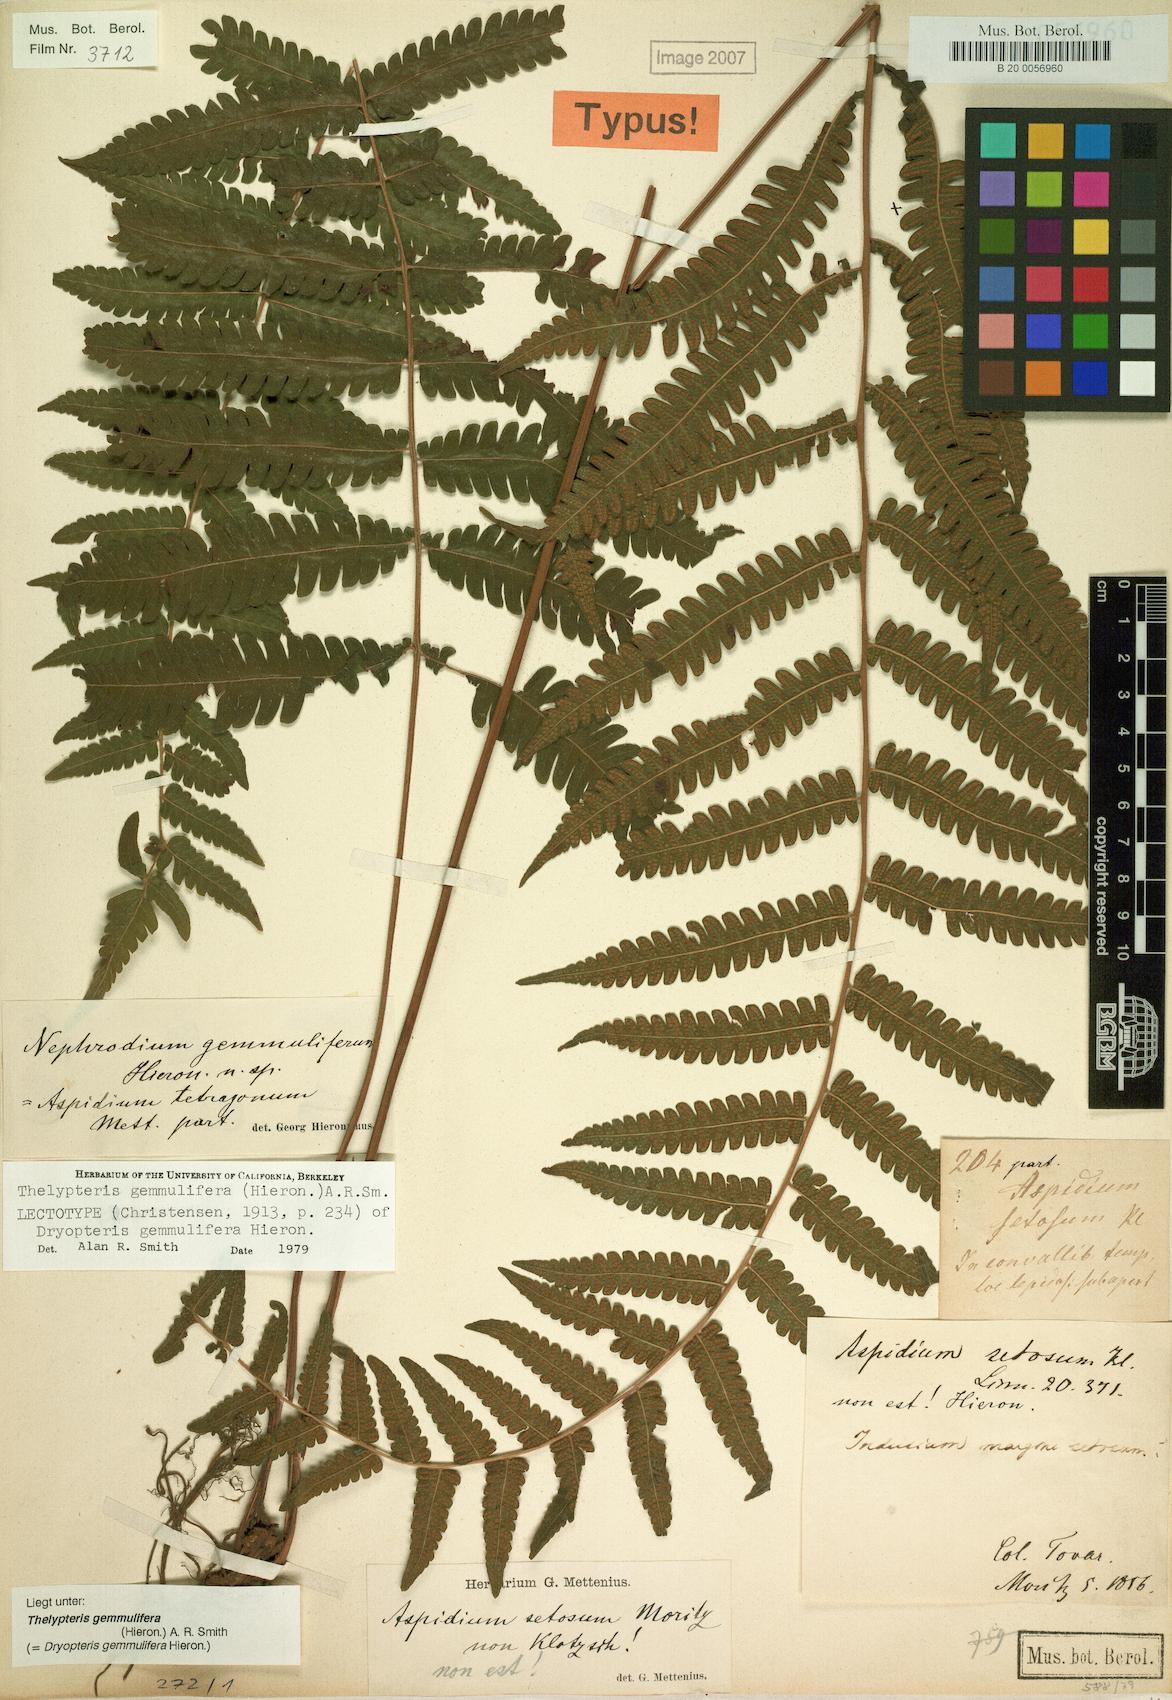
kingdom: Plantae
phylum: Tracheophyta
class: Polypodiopsida
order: Polypodiales
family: Thelypteridaceae
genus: Goniopteris
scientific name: Goniopteris gemmulifera
